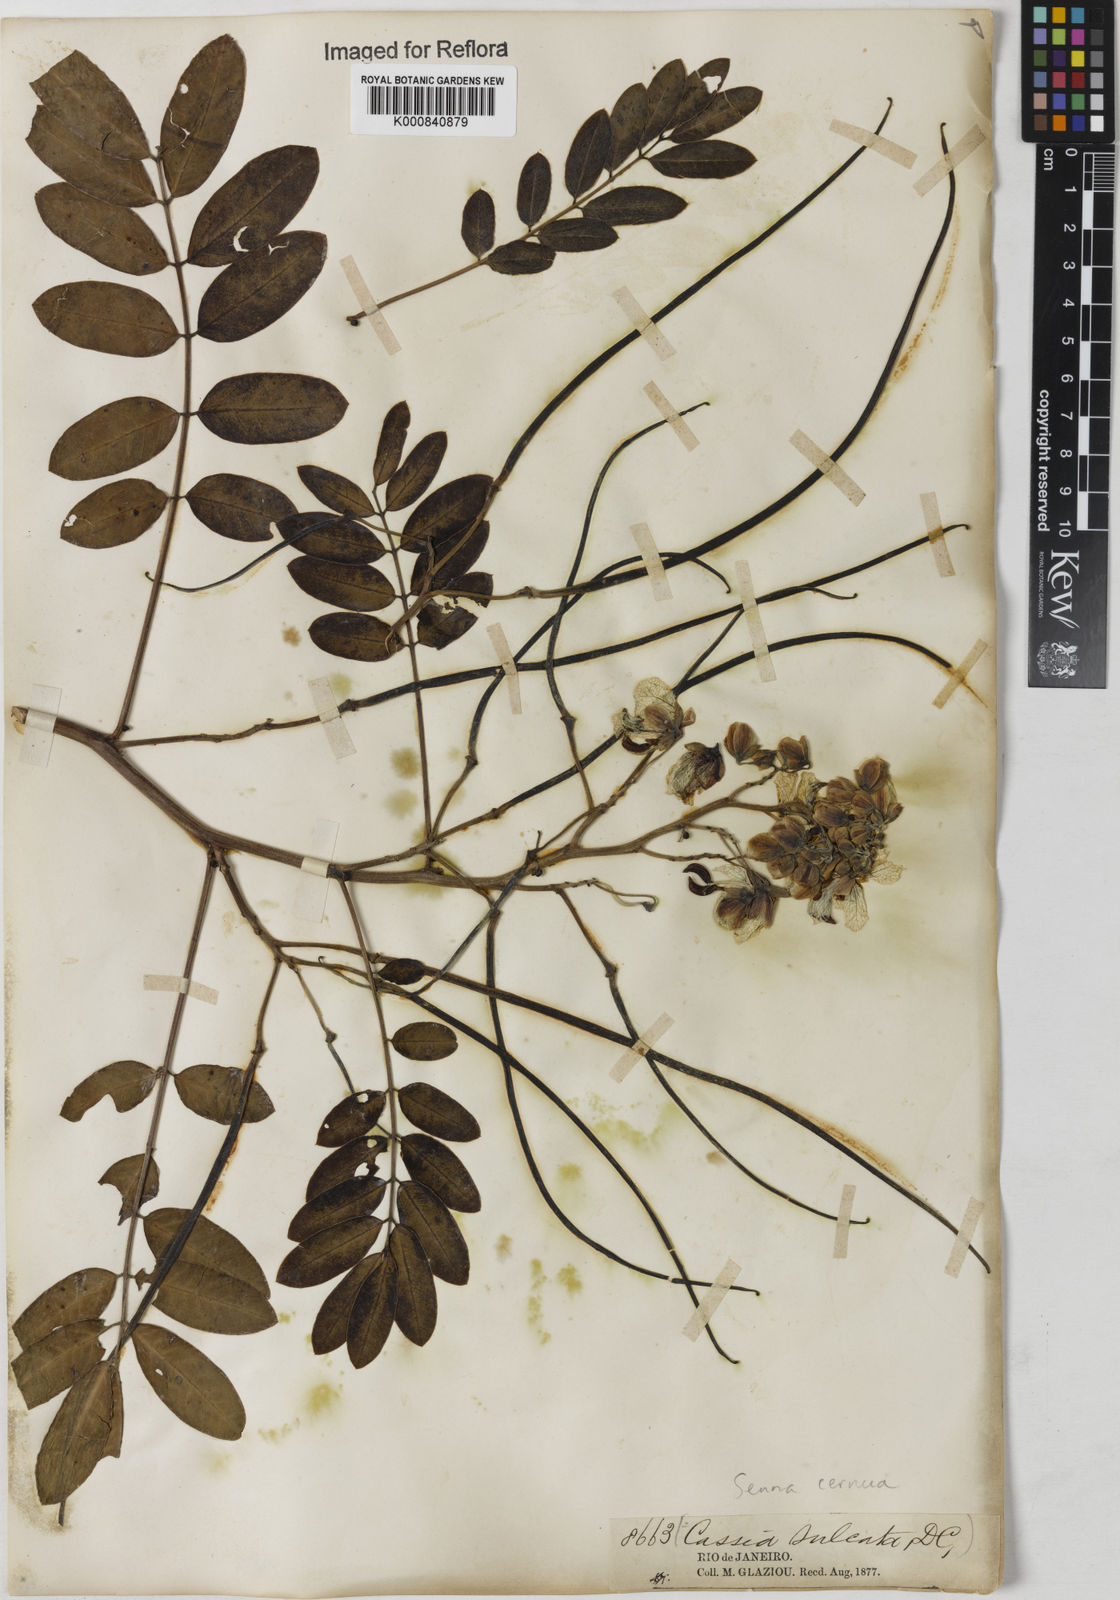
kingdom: Plantae
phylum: Tracheophyta
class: Magnoliopsida
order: Fabales
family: Fabaceae
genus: Senna
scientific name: Senna cernua
